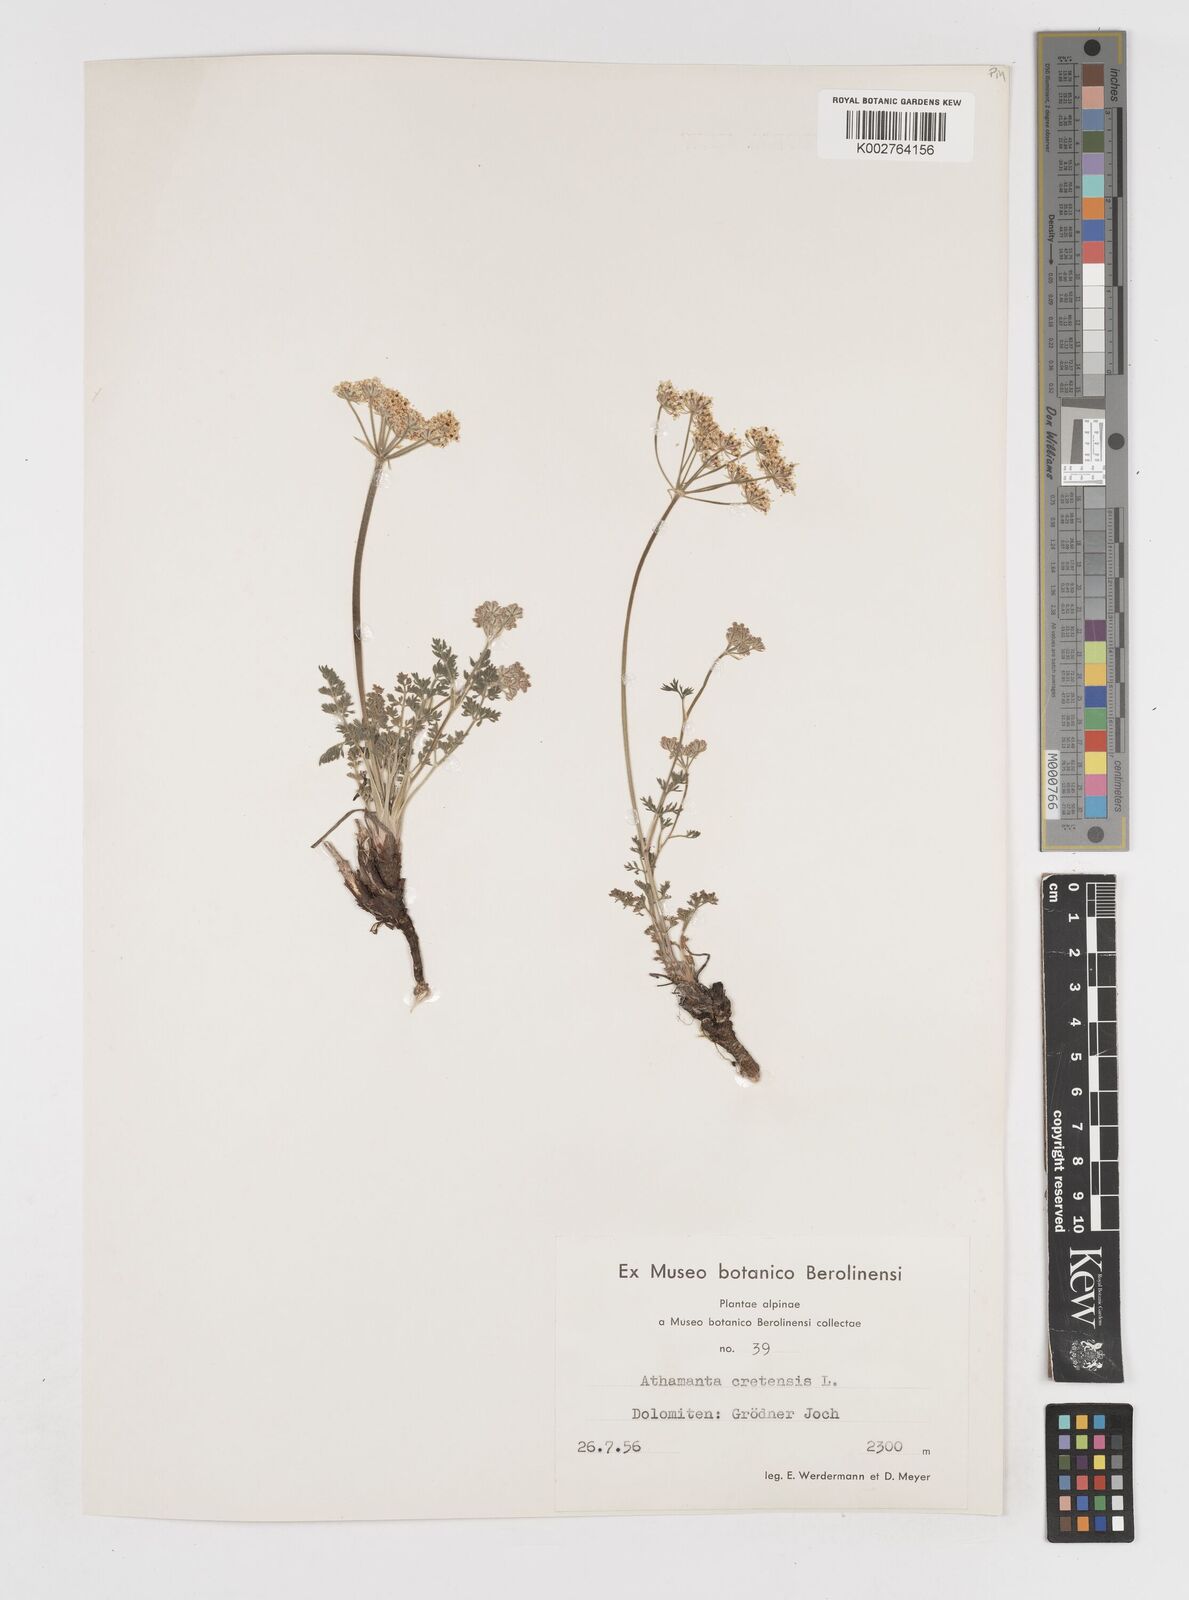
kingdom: Plantae
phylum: Tracheophyta
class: Magnoliopsida
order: Apiales
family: Apiaceae
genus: Athamanta
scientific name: Athamanta cretensis
